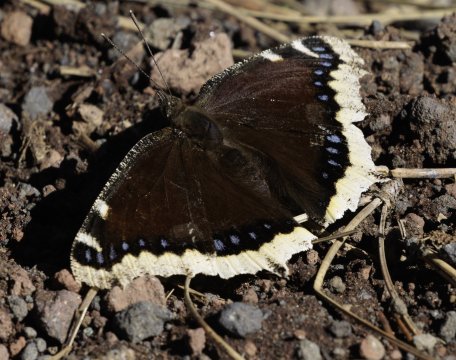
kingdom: Animalia
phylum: Arthropoda
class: Insecta
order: Lepidoptera
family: Nymphalidae
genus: Nymphalis
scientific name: Nymphalis antiopa
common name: Mourning Cloak
